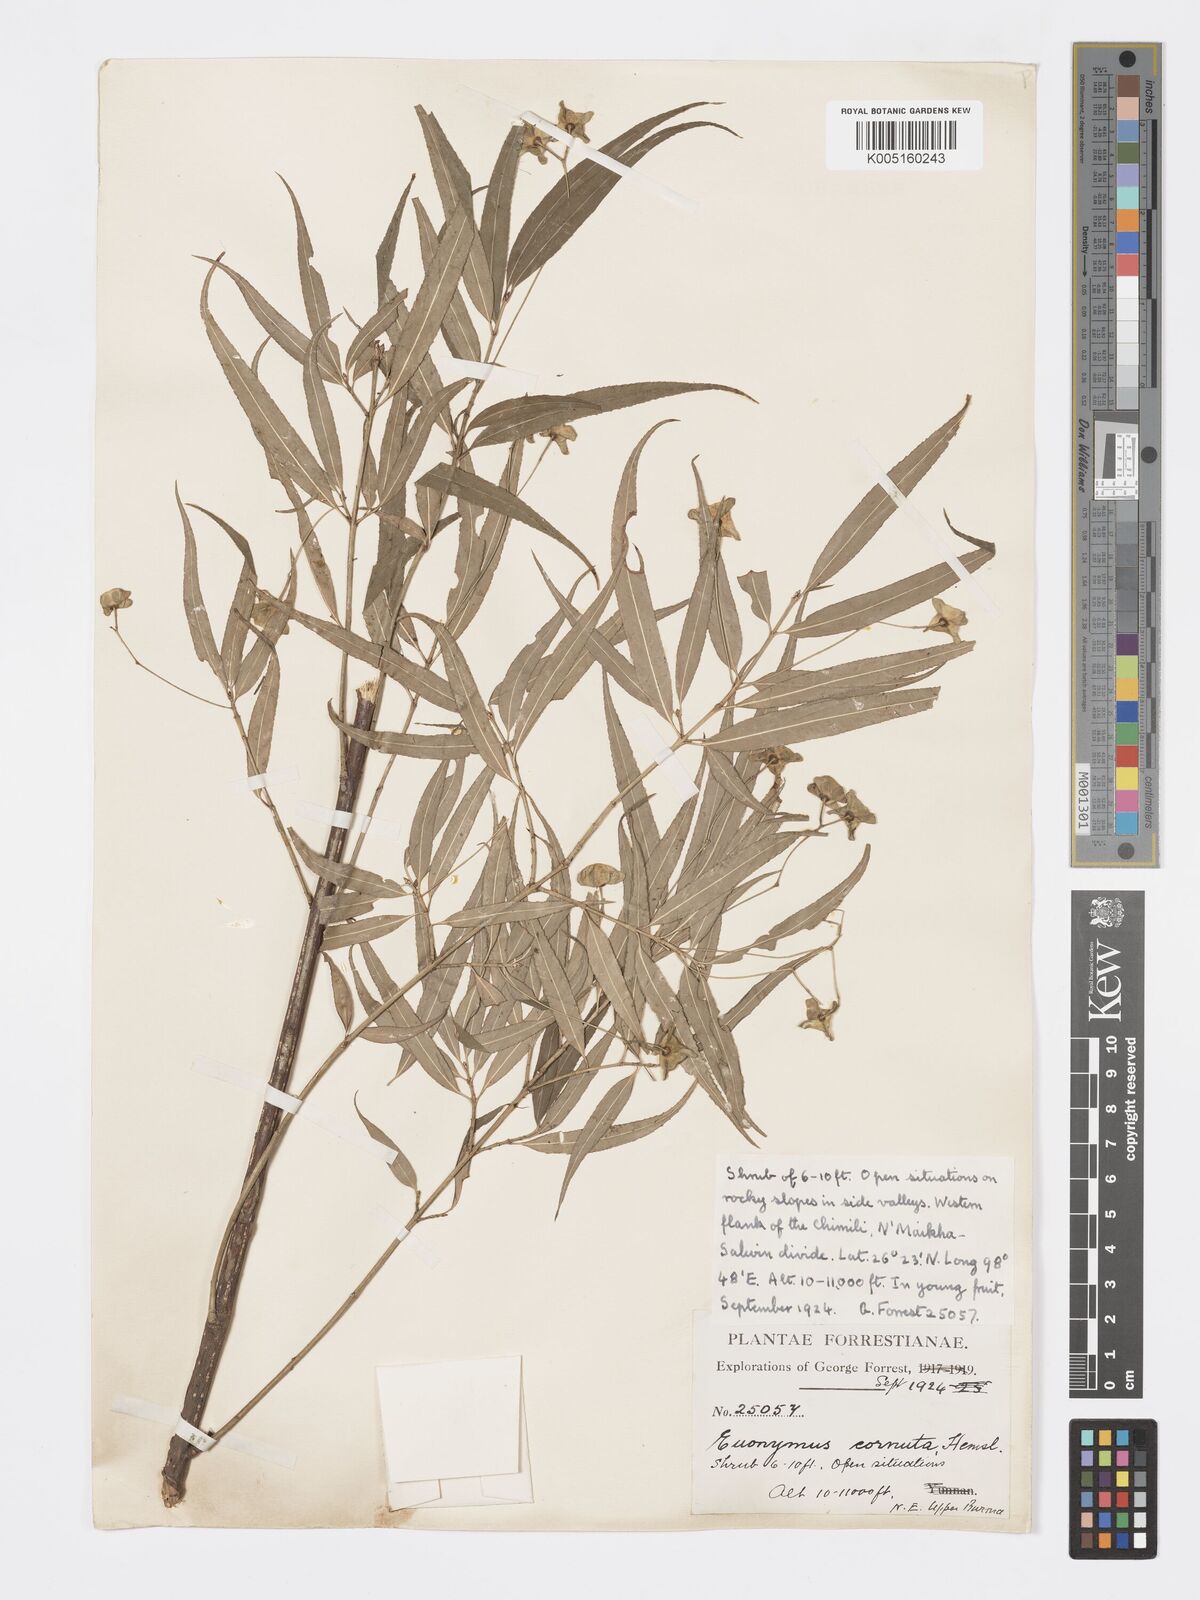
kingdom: Plantae
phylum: Tracheophyta
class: Magnoliopsida
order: Celastrales
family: Celastraceae
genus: Euonymus
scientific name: Euonymus cornutus
